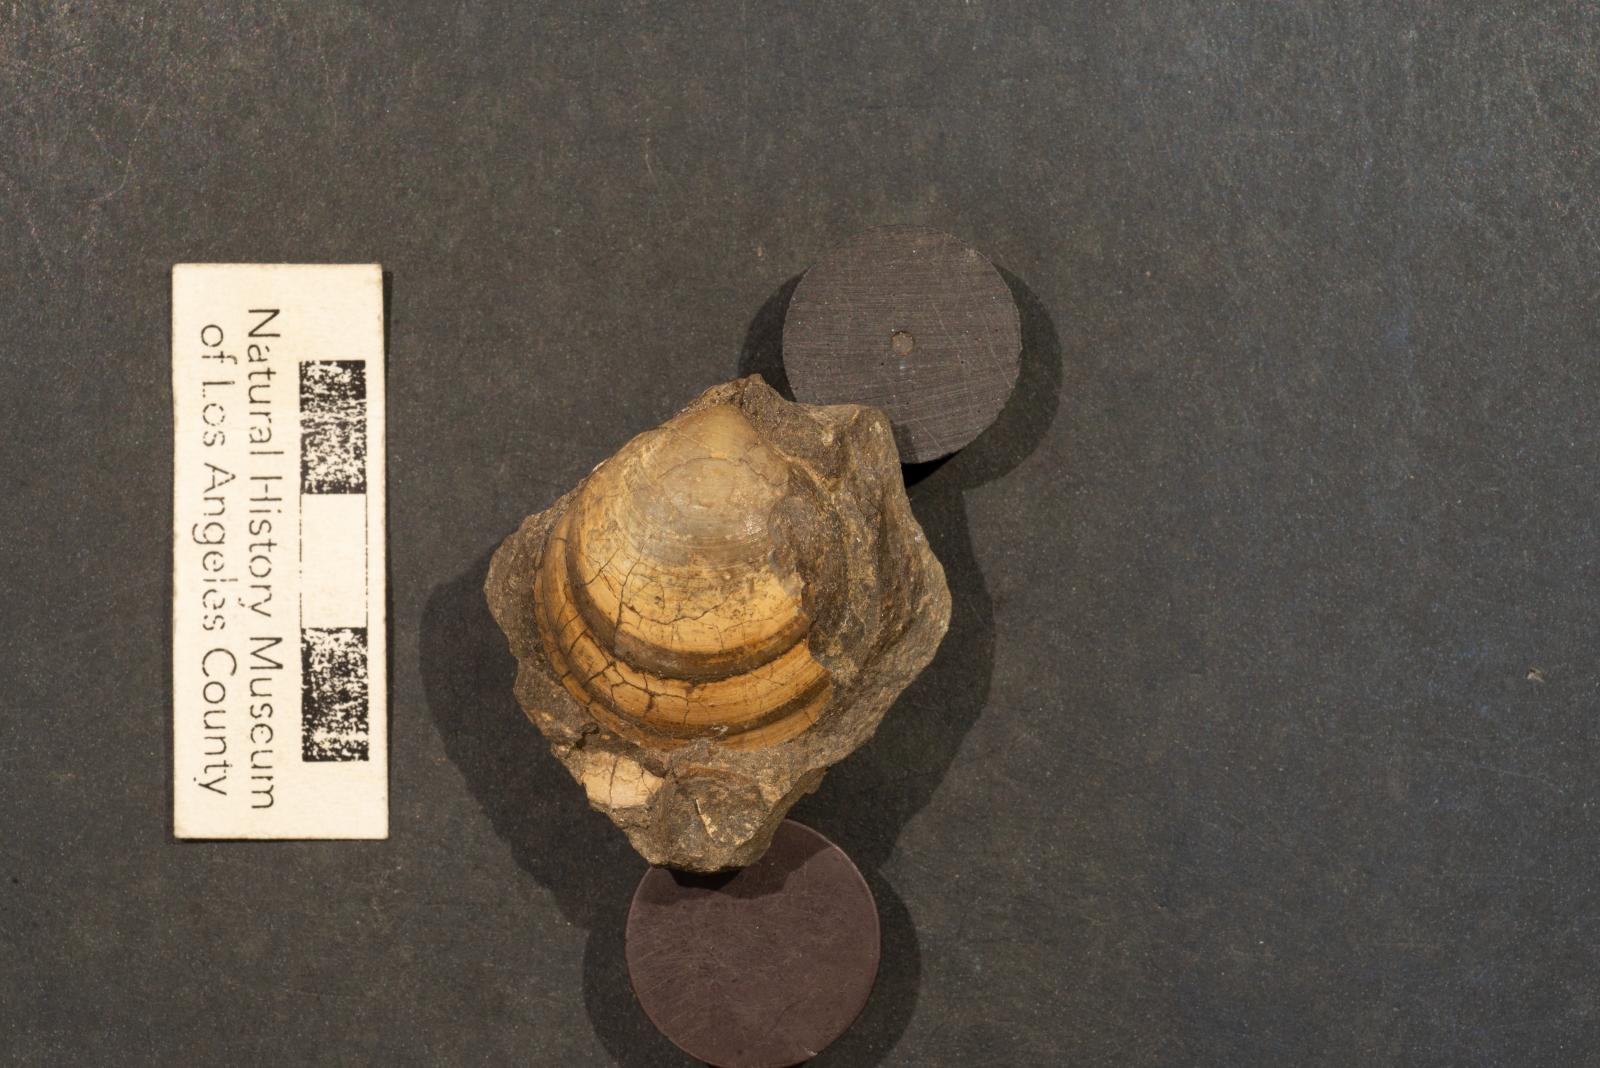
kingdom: Animalia
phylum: Mollusca
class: Bivalvia
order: Venerida
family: Veneridae
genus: Dosinia
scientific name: Dosinia lupinus
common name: Smooth artemis
